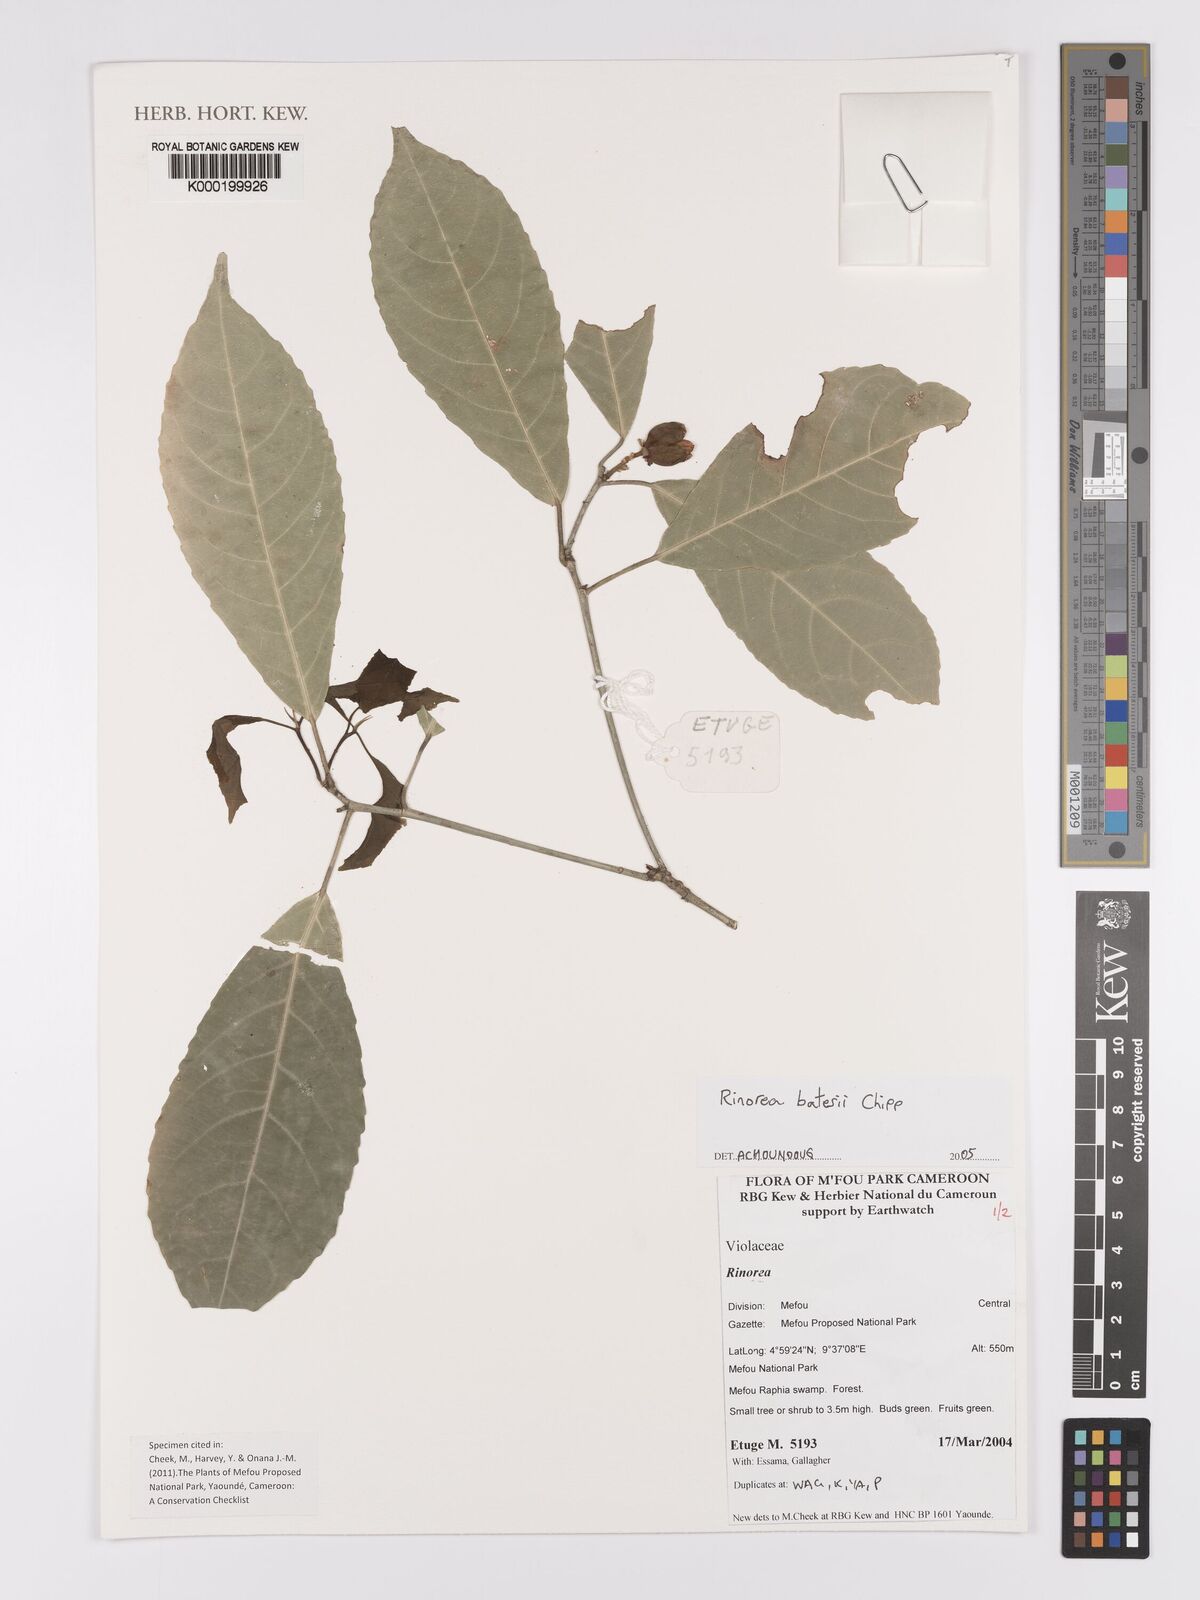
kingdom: Plantae
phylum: Tracheophyta
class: Magnoliopsida
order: Malpighiales
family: Violaceae
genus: Rinorea
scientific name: Rinorea batesii
